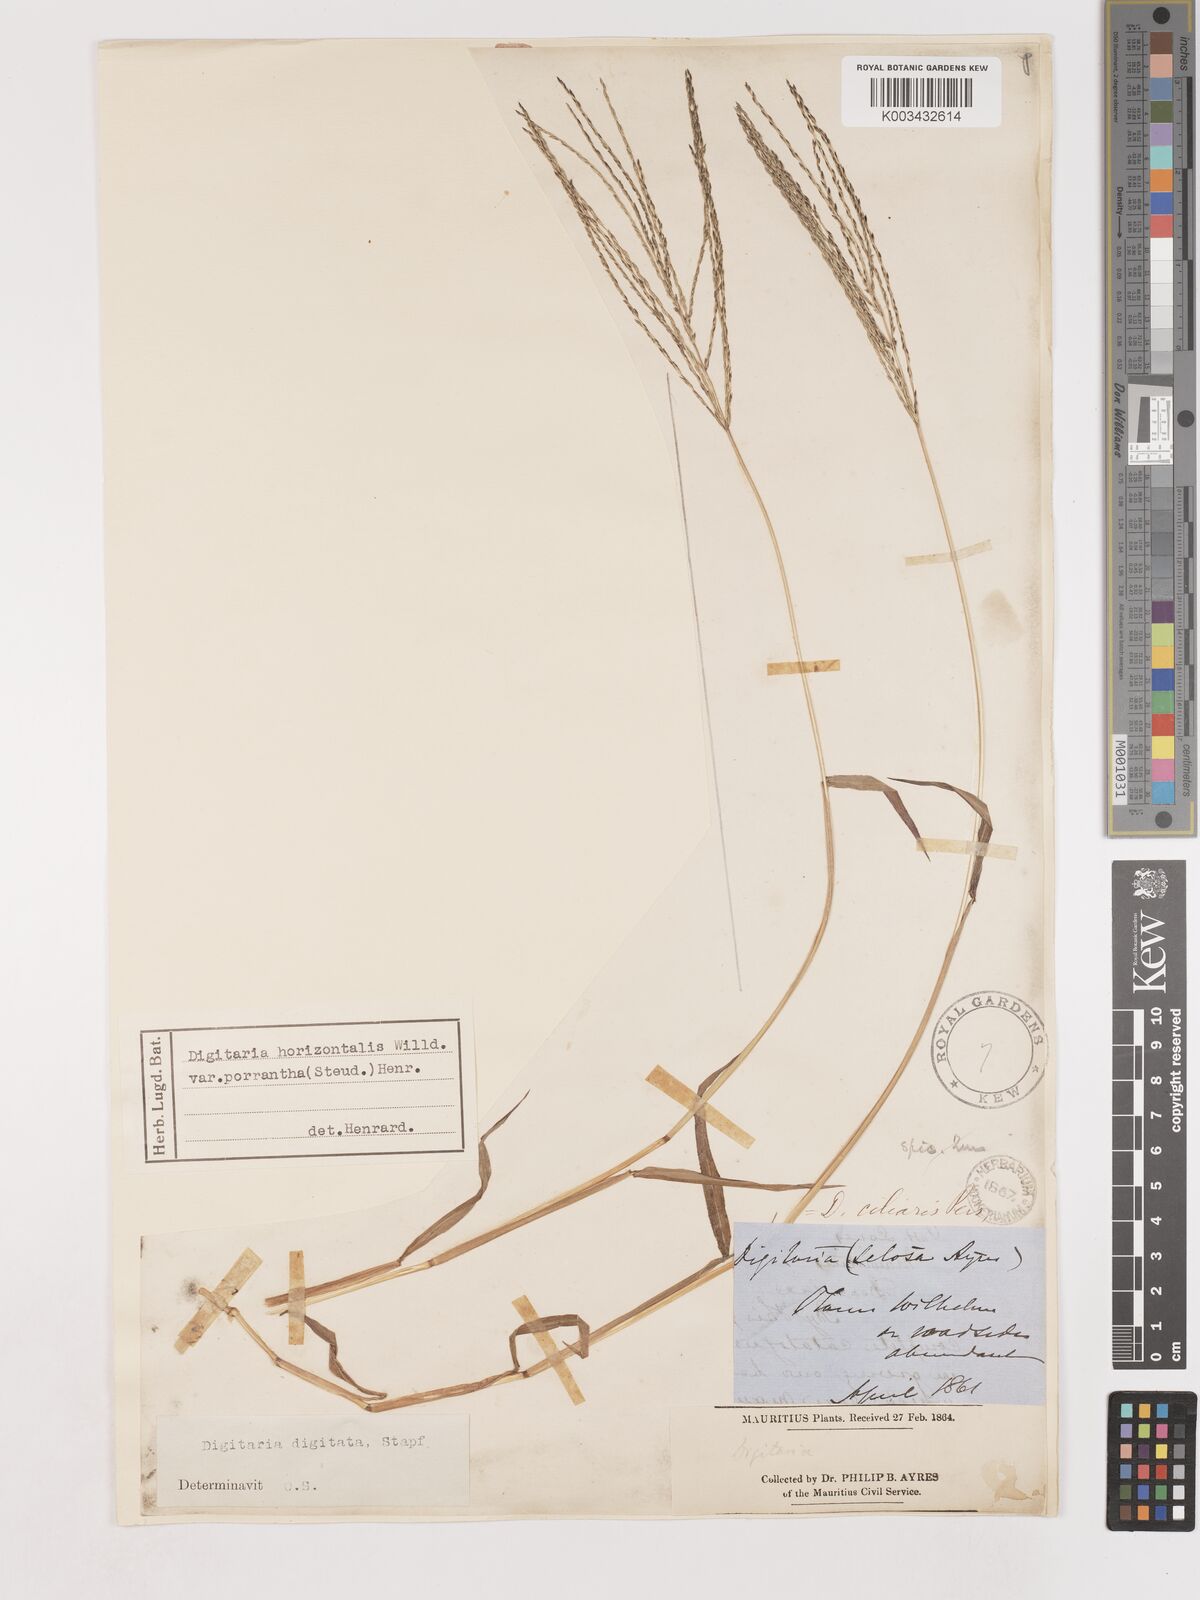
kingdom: Plantae
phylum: Tracheophyta
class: Liliopsida
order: Poales
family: Poaceae
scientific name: Poaceae
